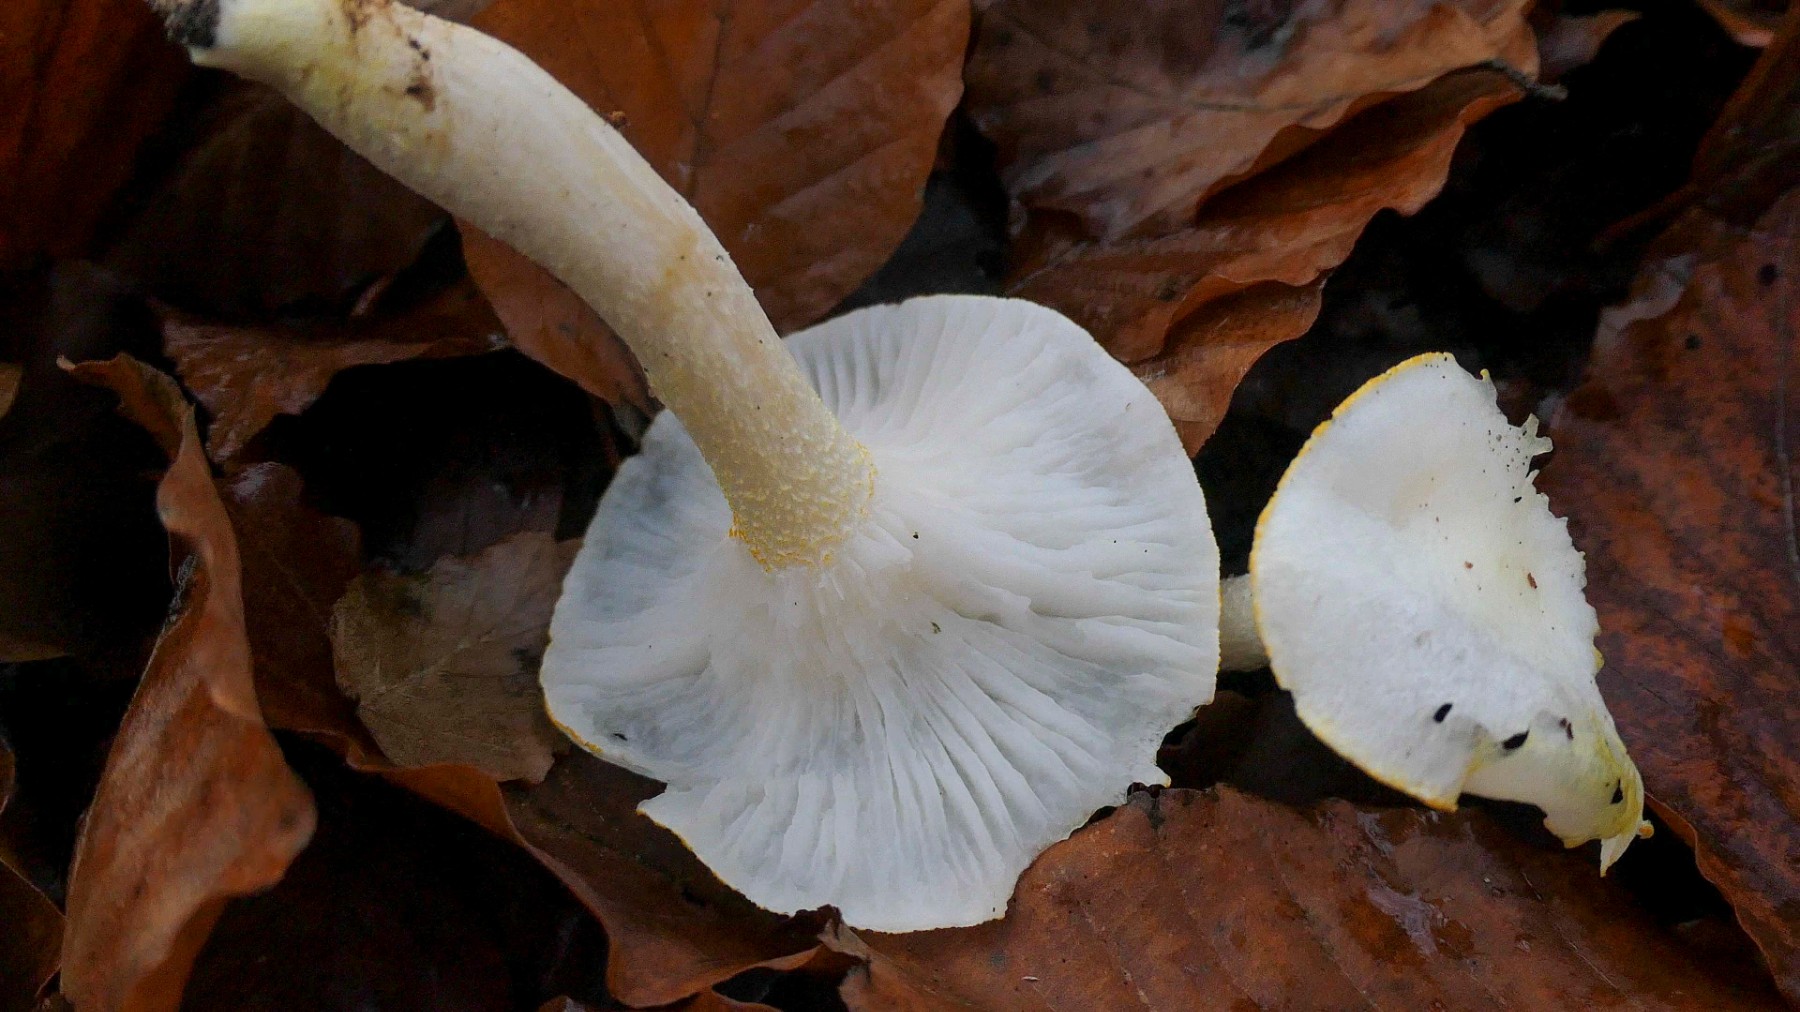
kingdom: Fungi
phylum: Basidiomycota
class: Agaricomycetes
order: Agaricales
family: Hygrophoraceae
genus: Hygrophorus
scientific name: Hygrophorus chrysodon
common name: gulfnugget sneglehat
